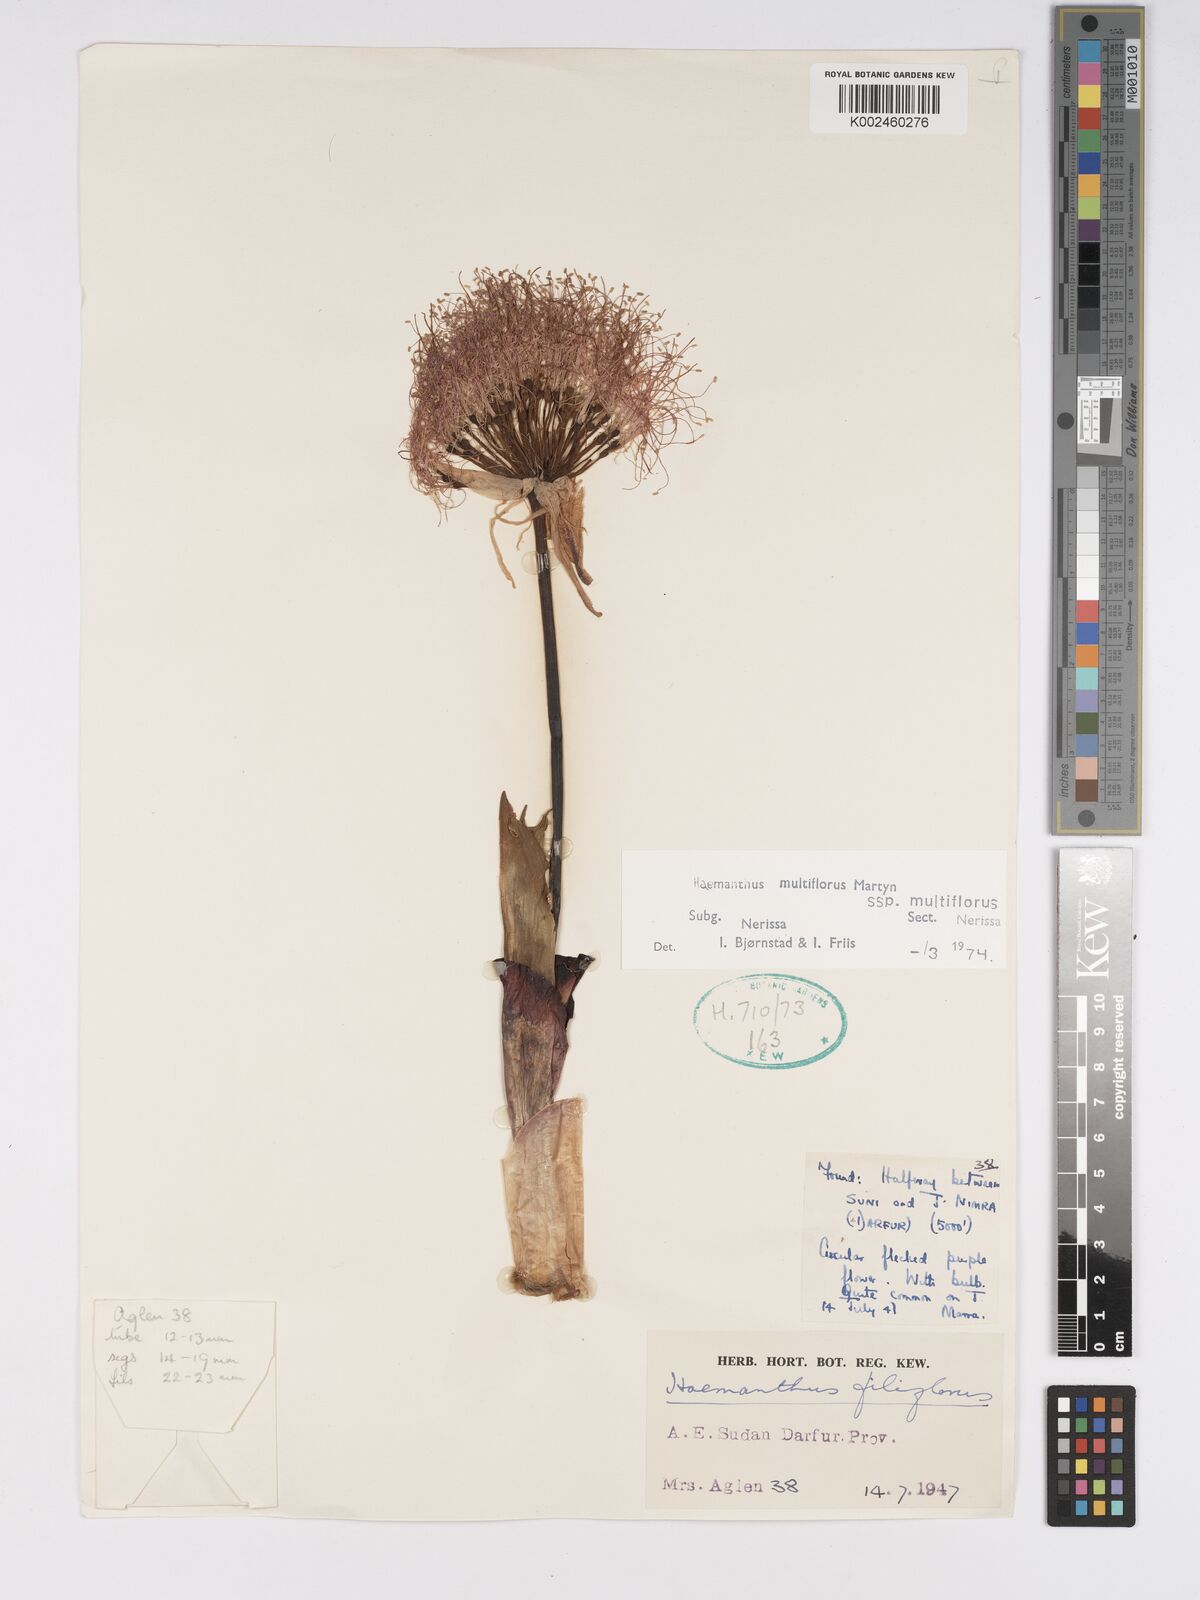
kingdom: Plantae
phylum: Tracheophyta
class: Liliopsida
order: Asparagales
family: Amaryllidaceae
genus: Scadoxus
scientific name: Scadoxus multiflorus
